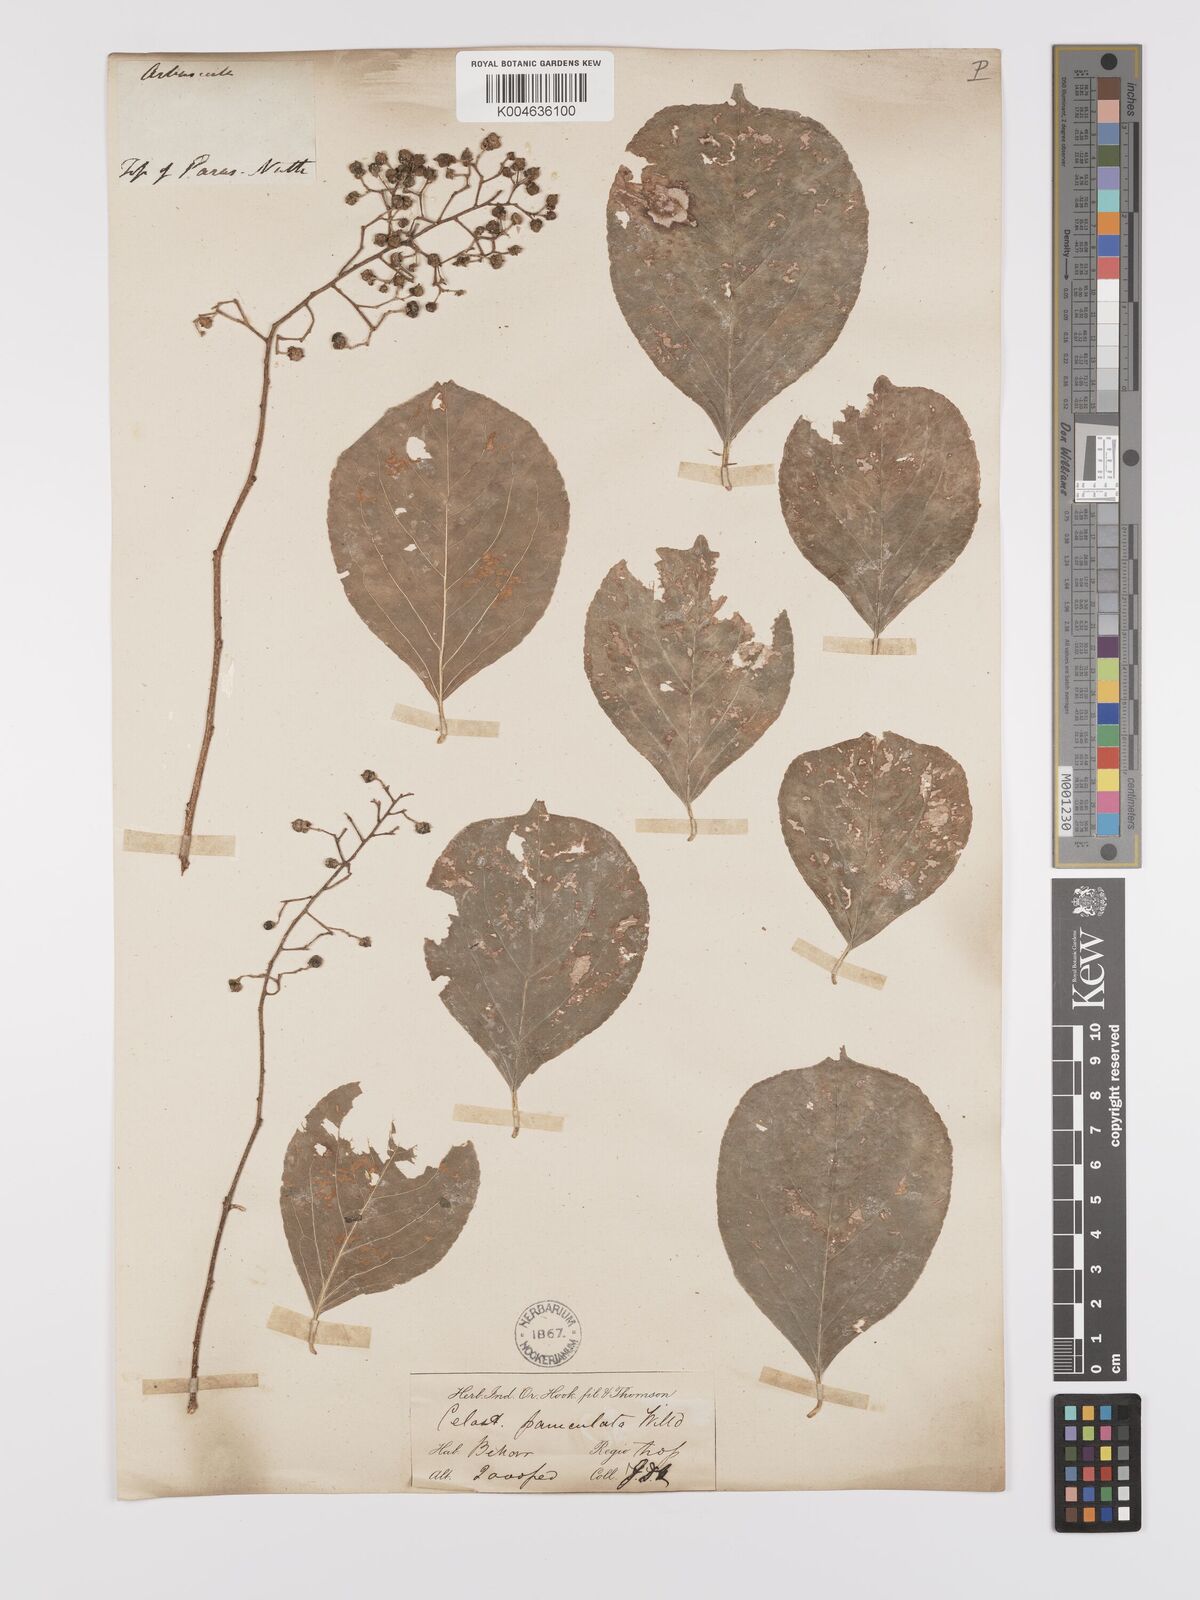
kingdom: Plantae
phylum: Tracheophyta
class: Magnoliopsida
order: Celastrales
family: Celastraceae
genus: Celastrus
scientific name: Celastrus paniculatus
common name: Oriental bittersweet; staff vine
